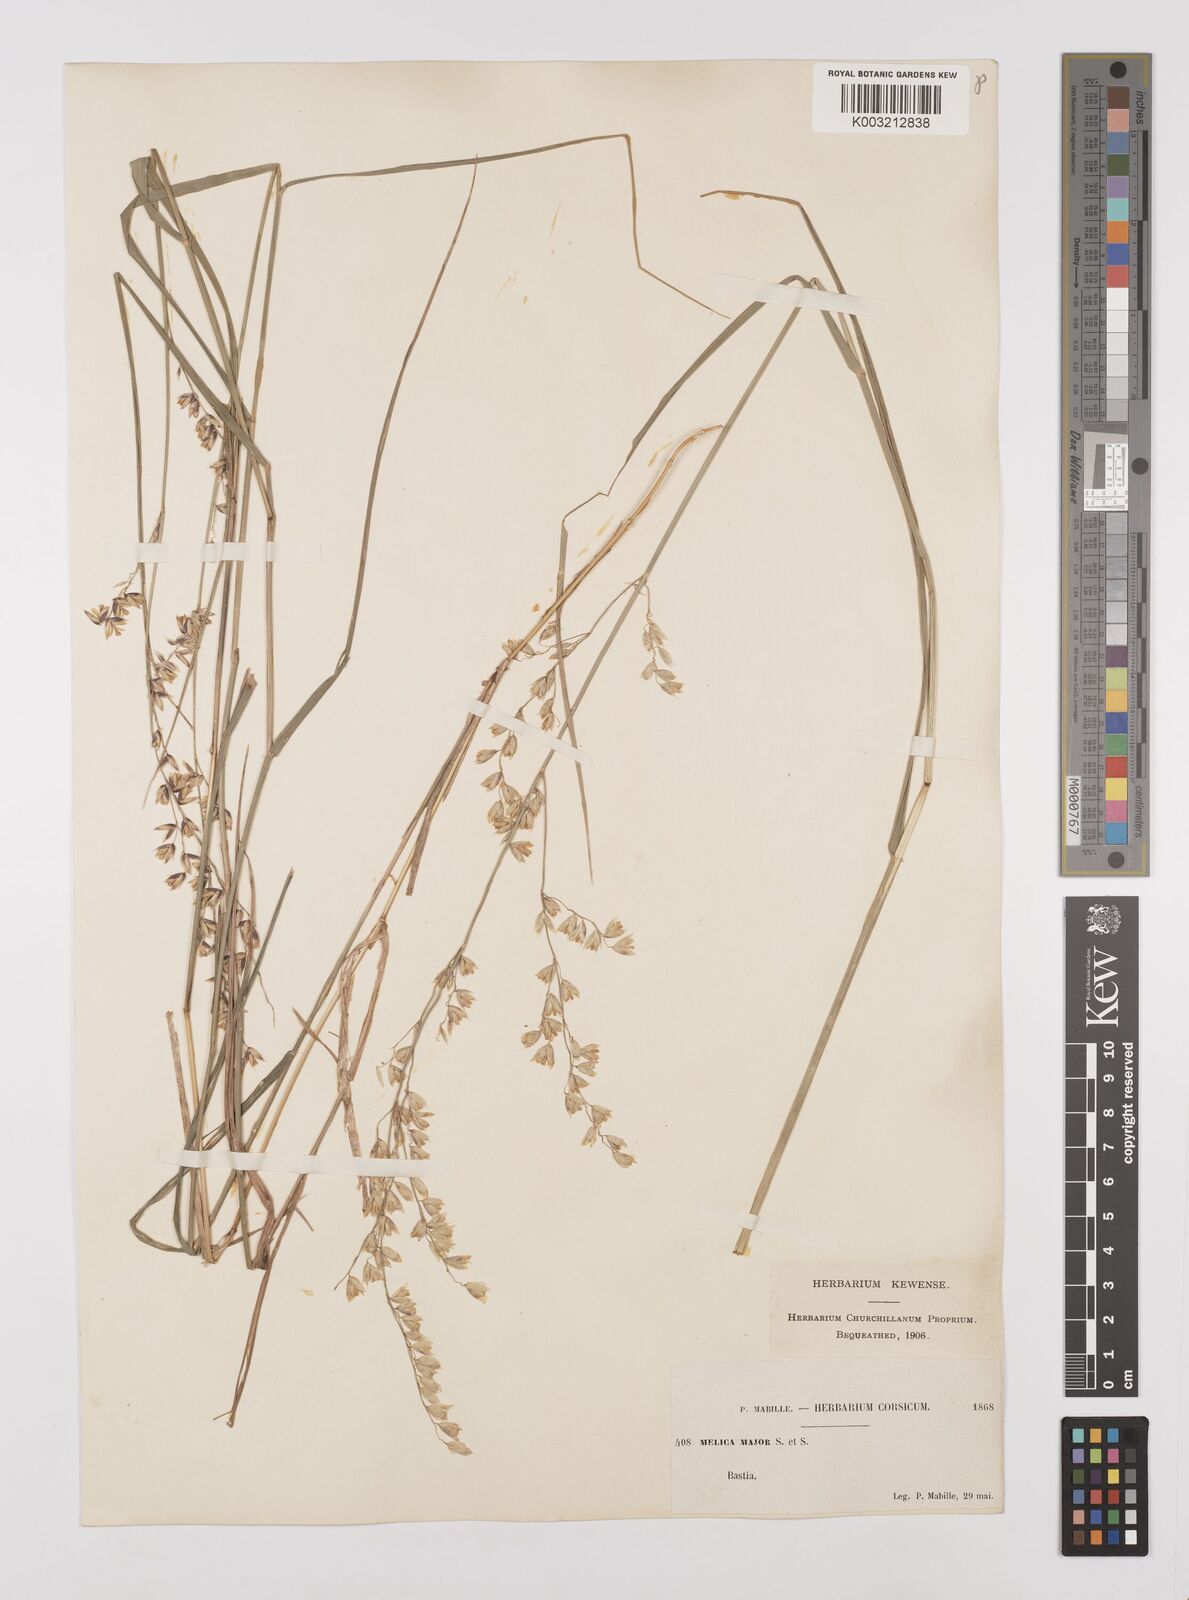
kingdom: Plantae
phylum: Tracheophyta
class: Liliopsida
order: Poales
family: Poaceae
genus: Melica
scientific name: Melica minuta
